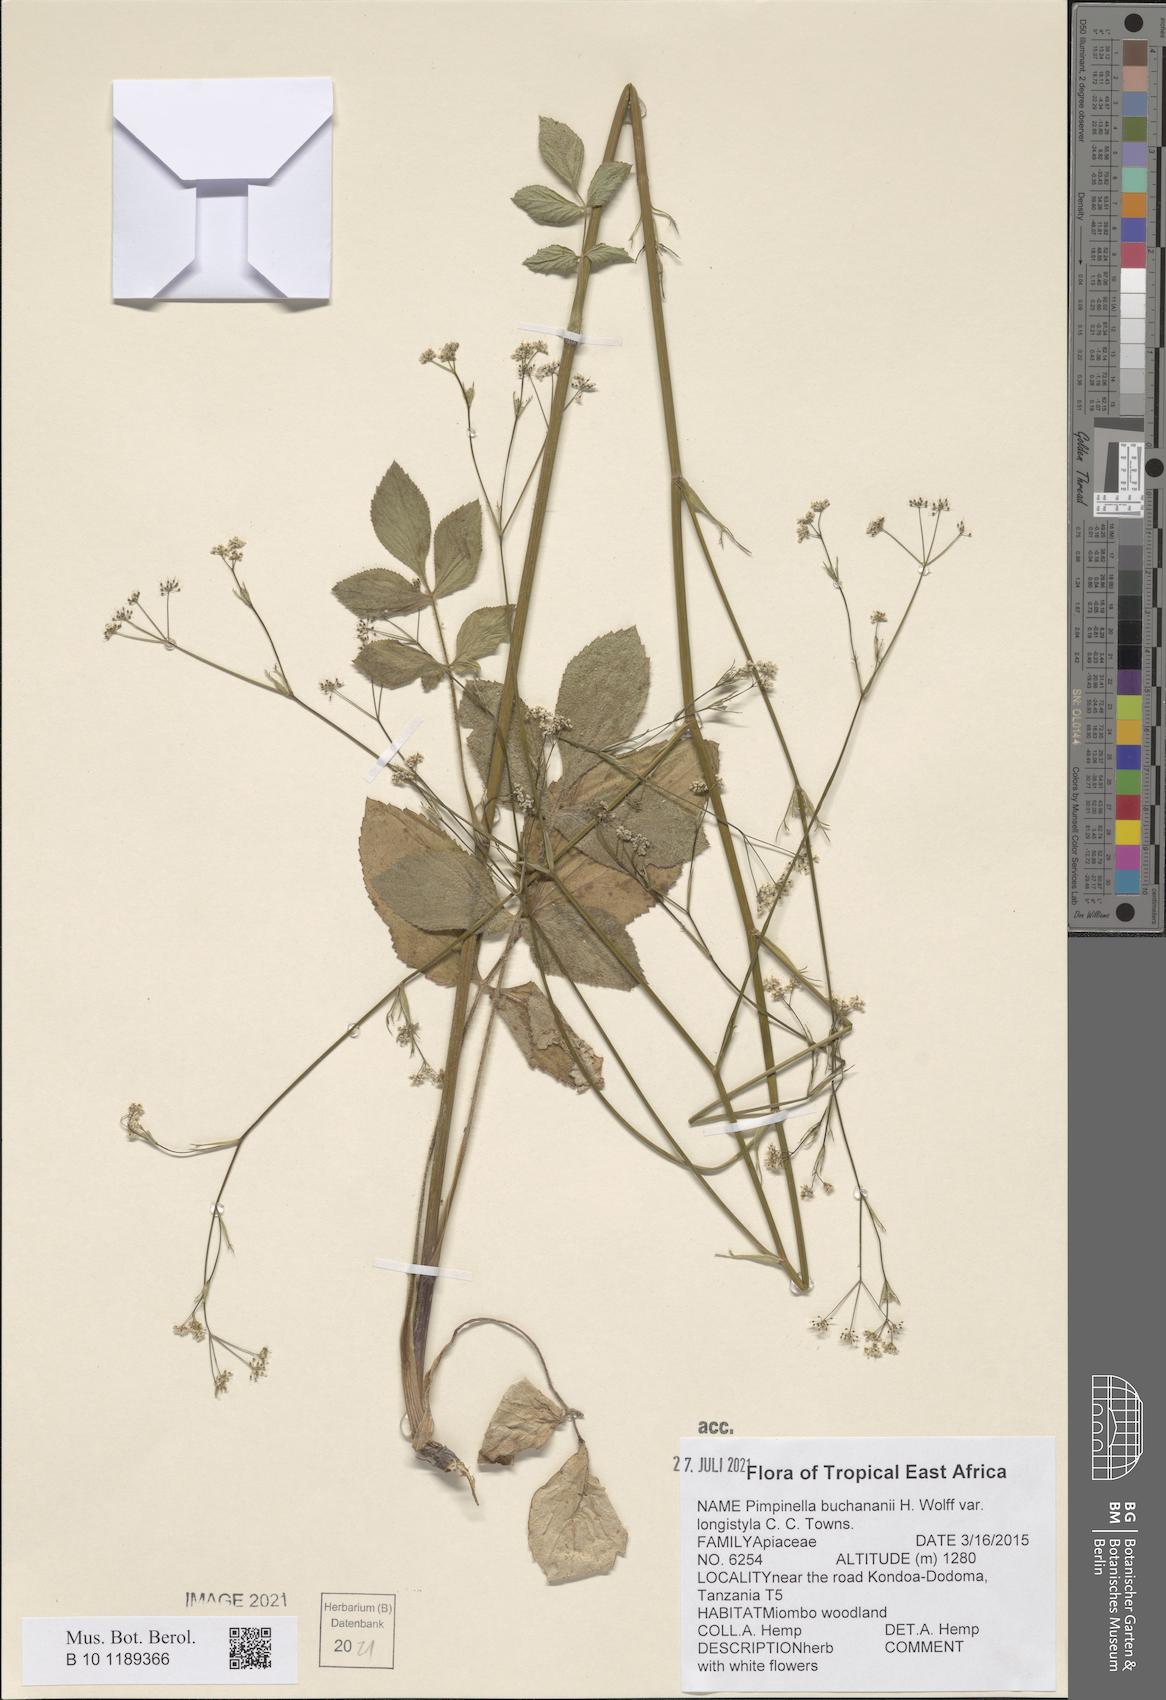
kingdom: Plantae
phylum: Tracheophyta
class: Magnoliopsida
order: Apiales
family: Apiaceae
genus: Pimpinella
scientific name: Pimpinella buchananii
